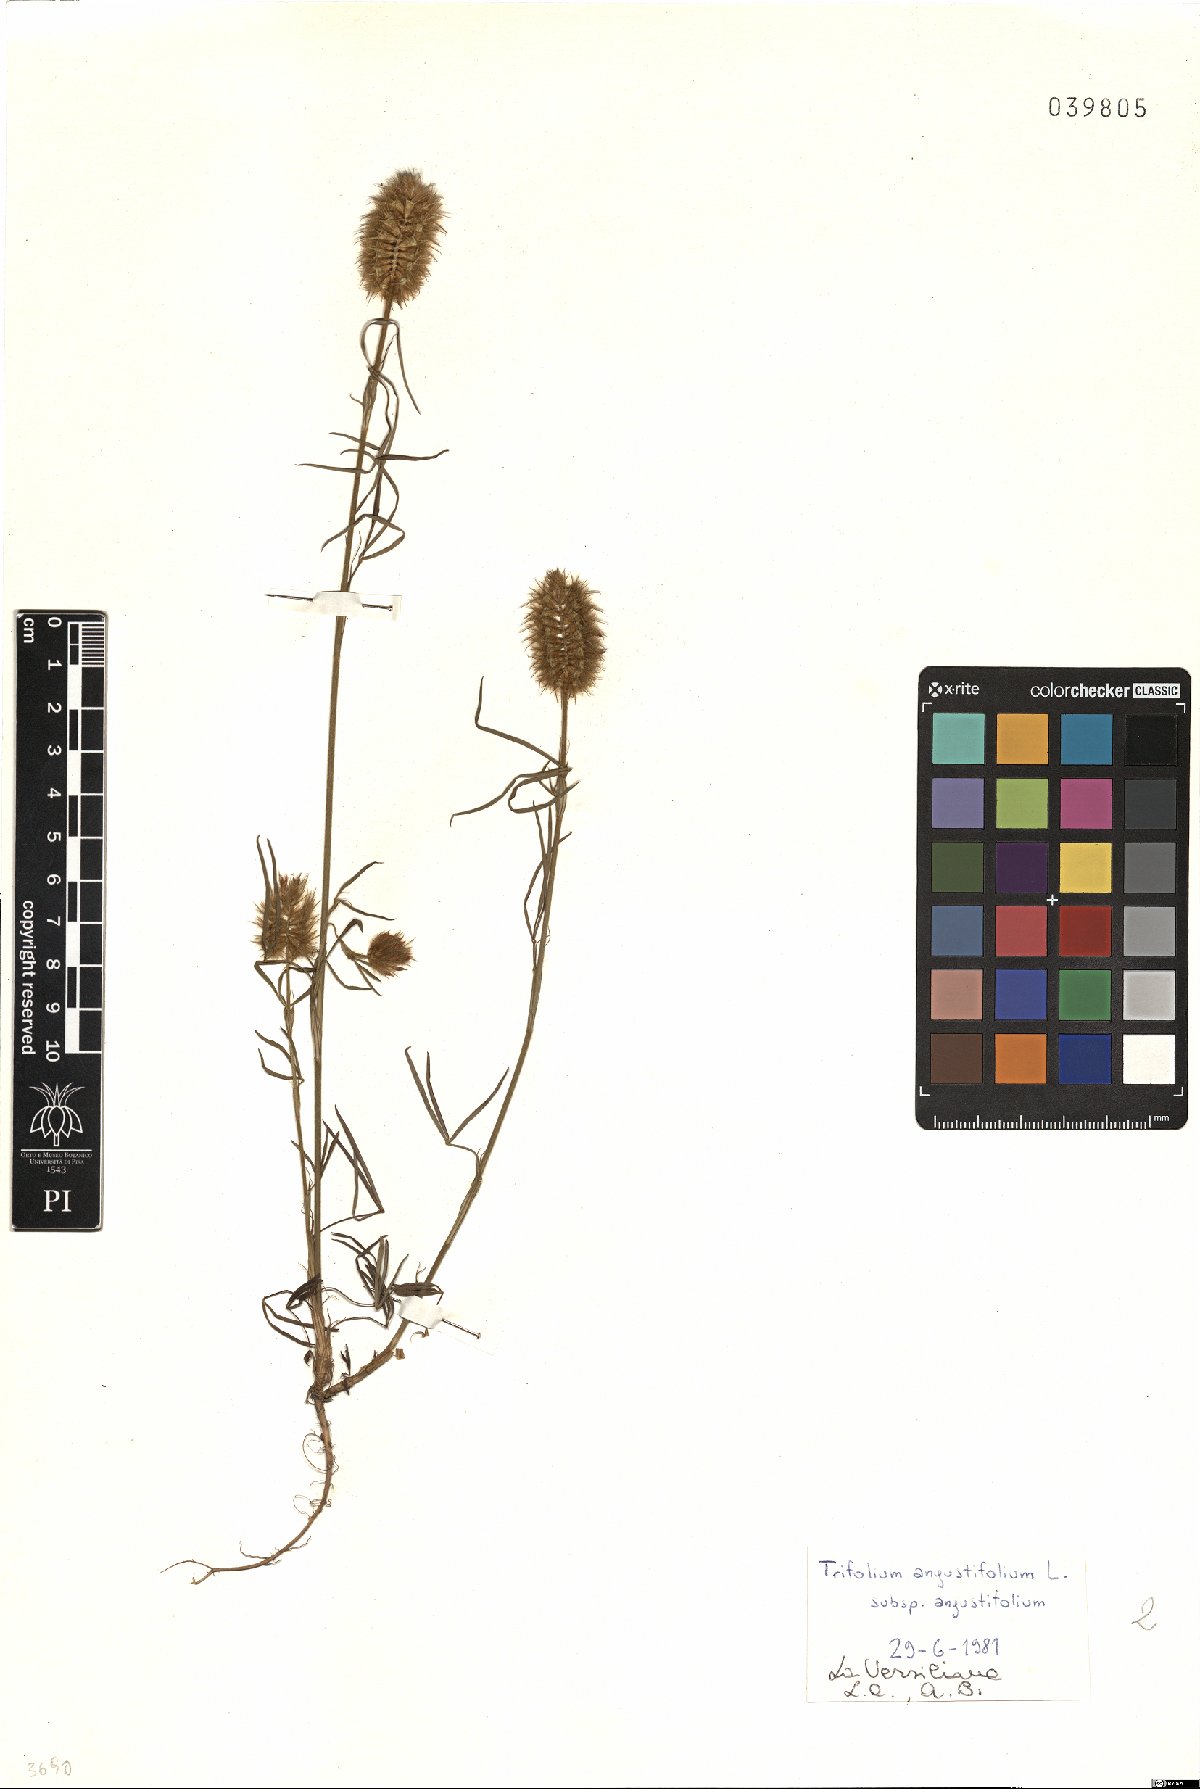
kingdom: Plantae
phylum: Tracheophyta
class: Magnoliopsida
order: Fabales
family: Fabaceae
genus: Trifolium
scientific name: Trifolium angustifolium
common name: Narrow clover
